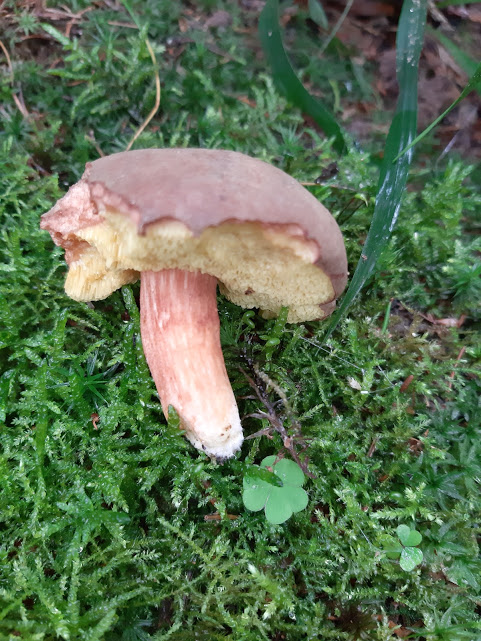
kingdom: Fungi
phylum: Basidiomycota
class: Agaricomycetes
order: Boletales
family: Boletaceae
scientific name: Boletaceae
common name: rørhatfamilien
